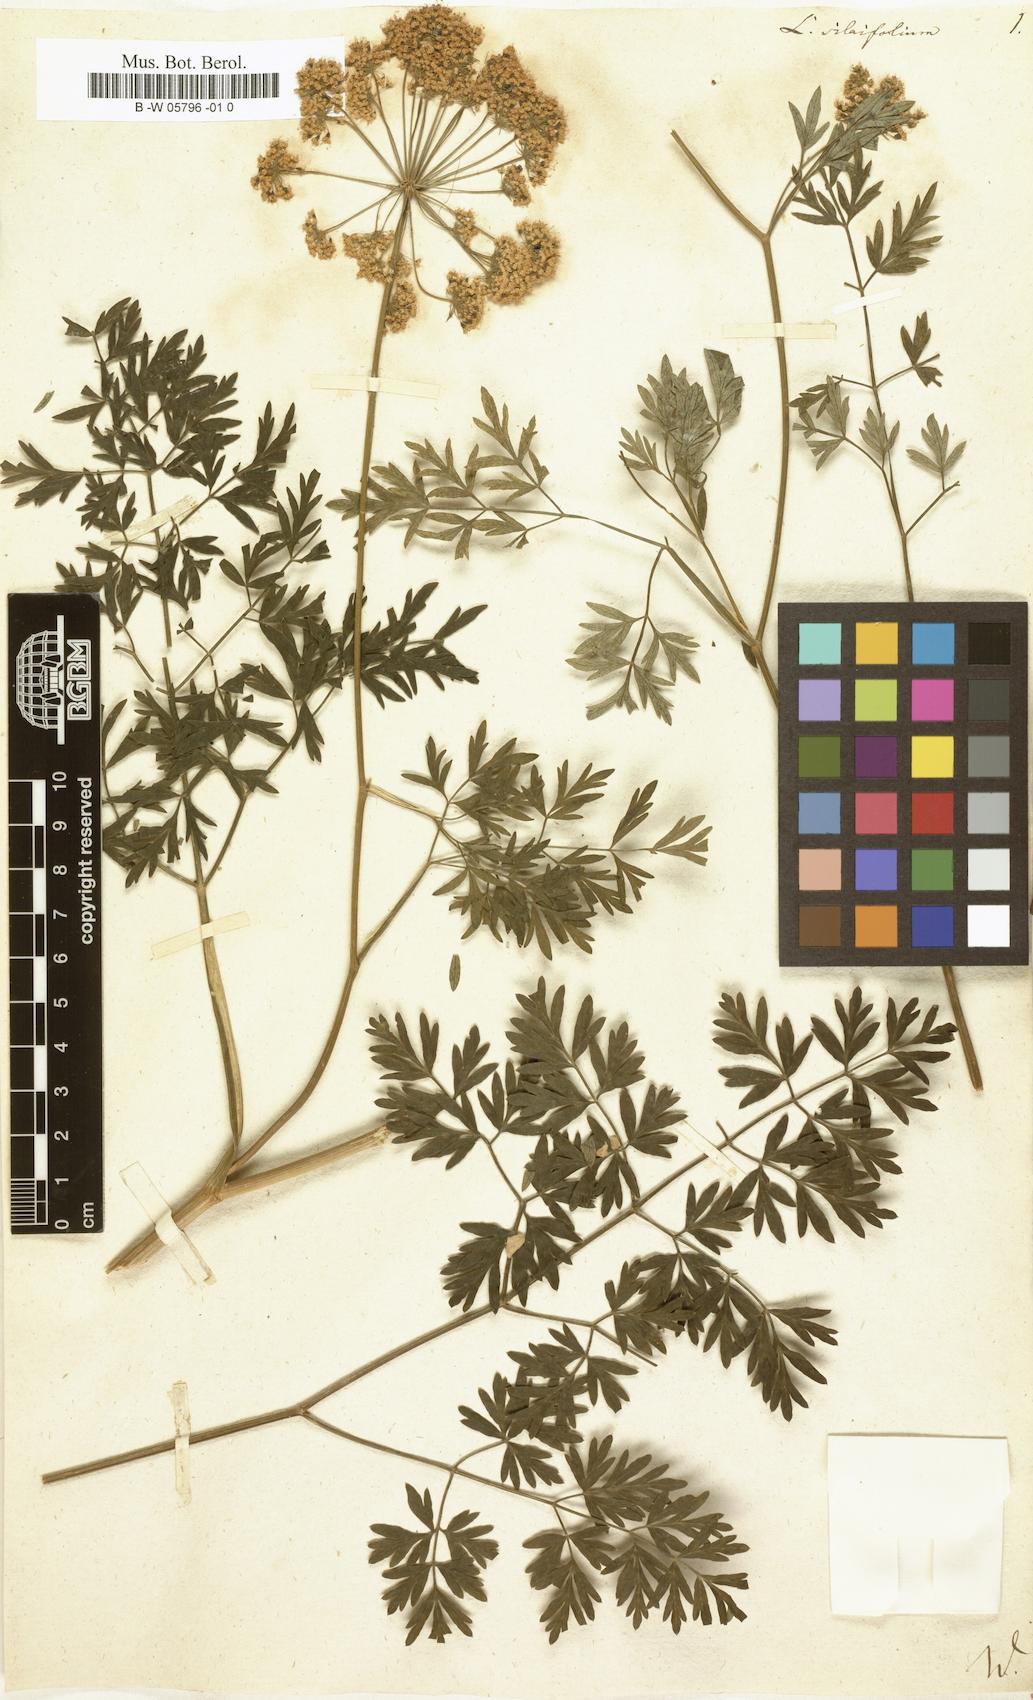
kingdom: Plantae
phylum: Tracheophyta
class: Magnoliopsida
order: Apiales
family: Apiaceae
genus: Katapsuxis
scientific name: Katapsuxis silaifolia
